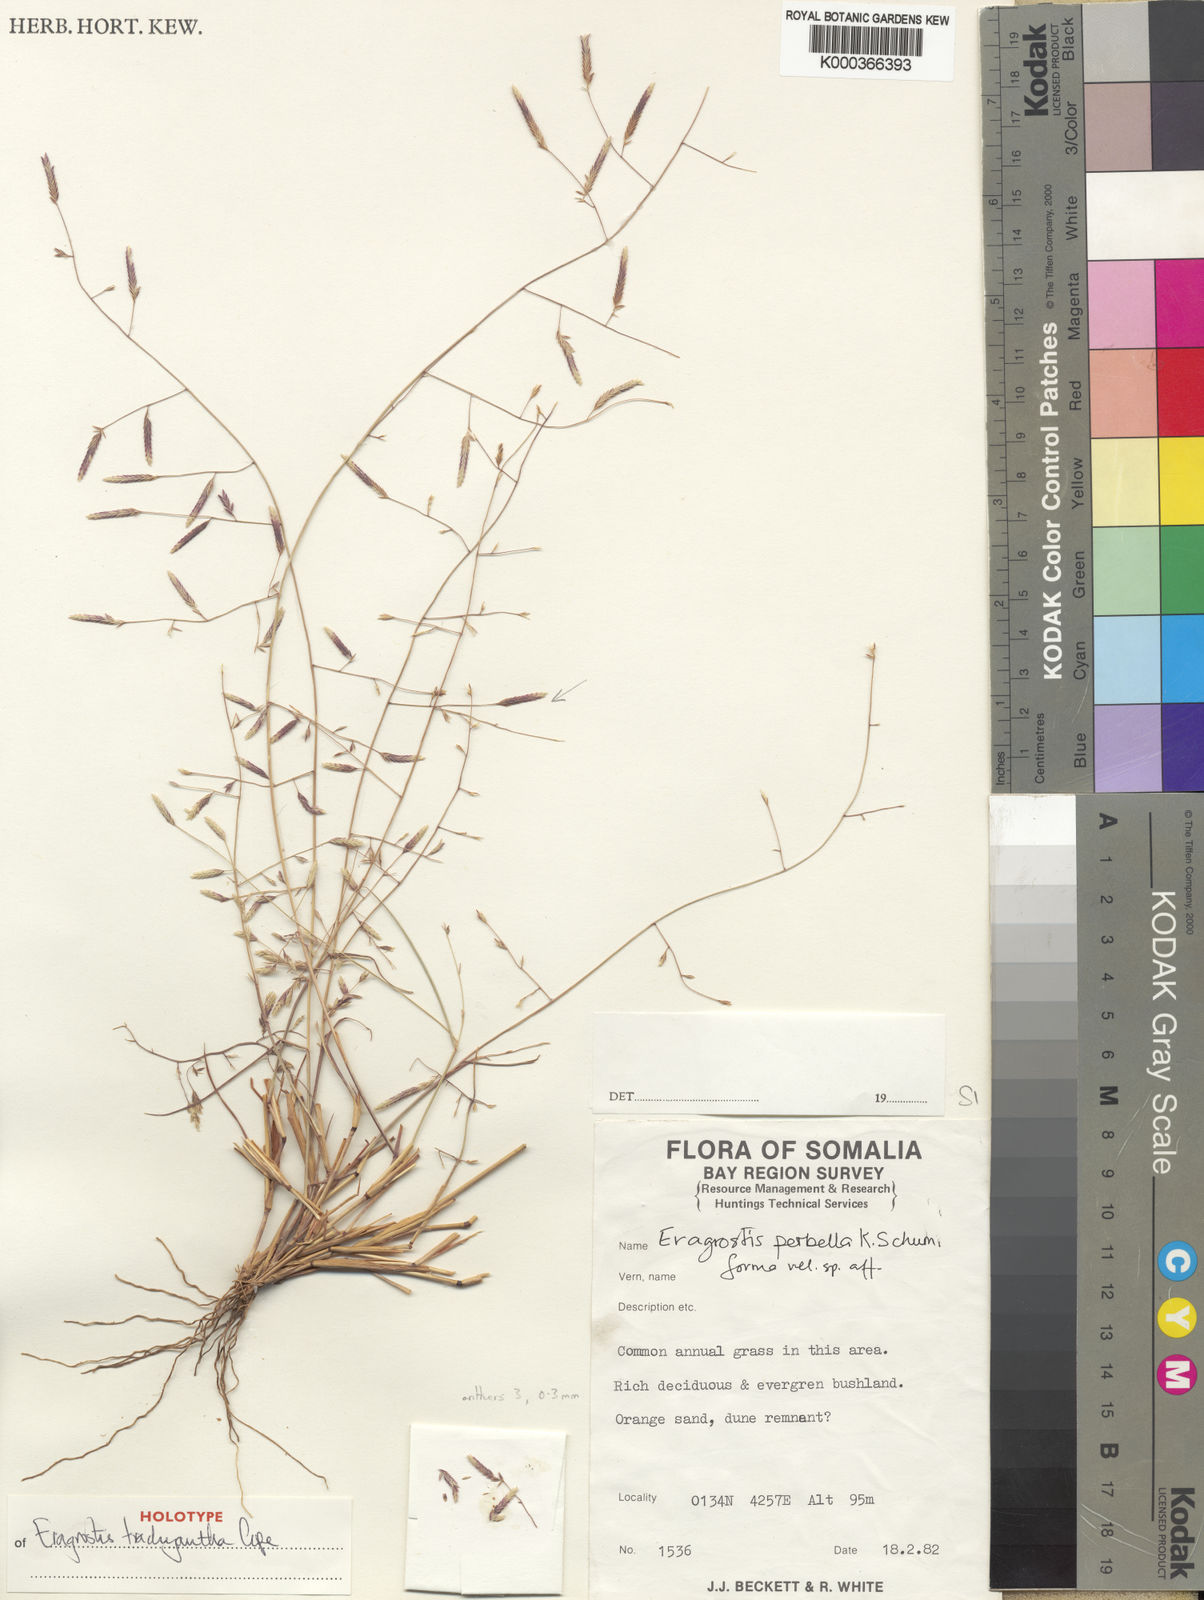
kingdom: Plantae
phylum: Tracheophyta
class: Liliopsida
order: Poales
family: Poaceae
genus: Eragrostis
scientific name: Eragrostis trachyantha
